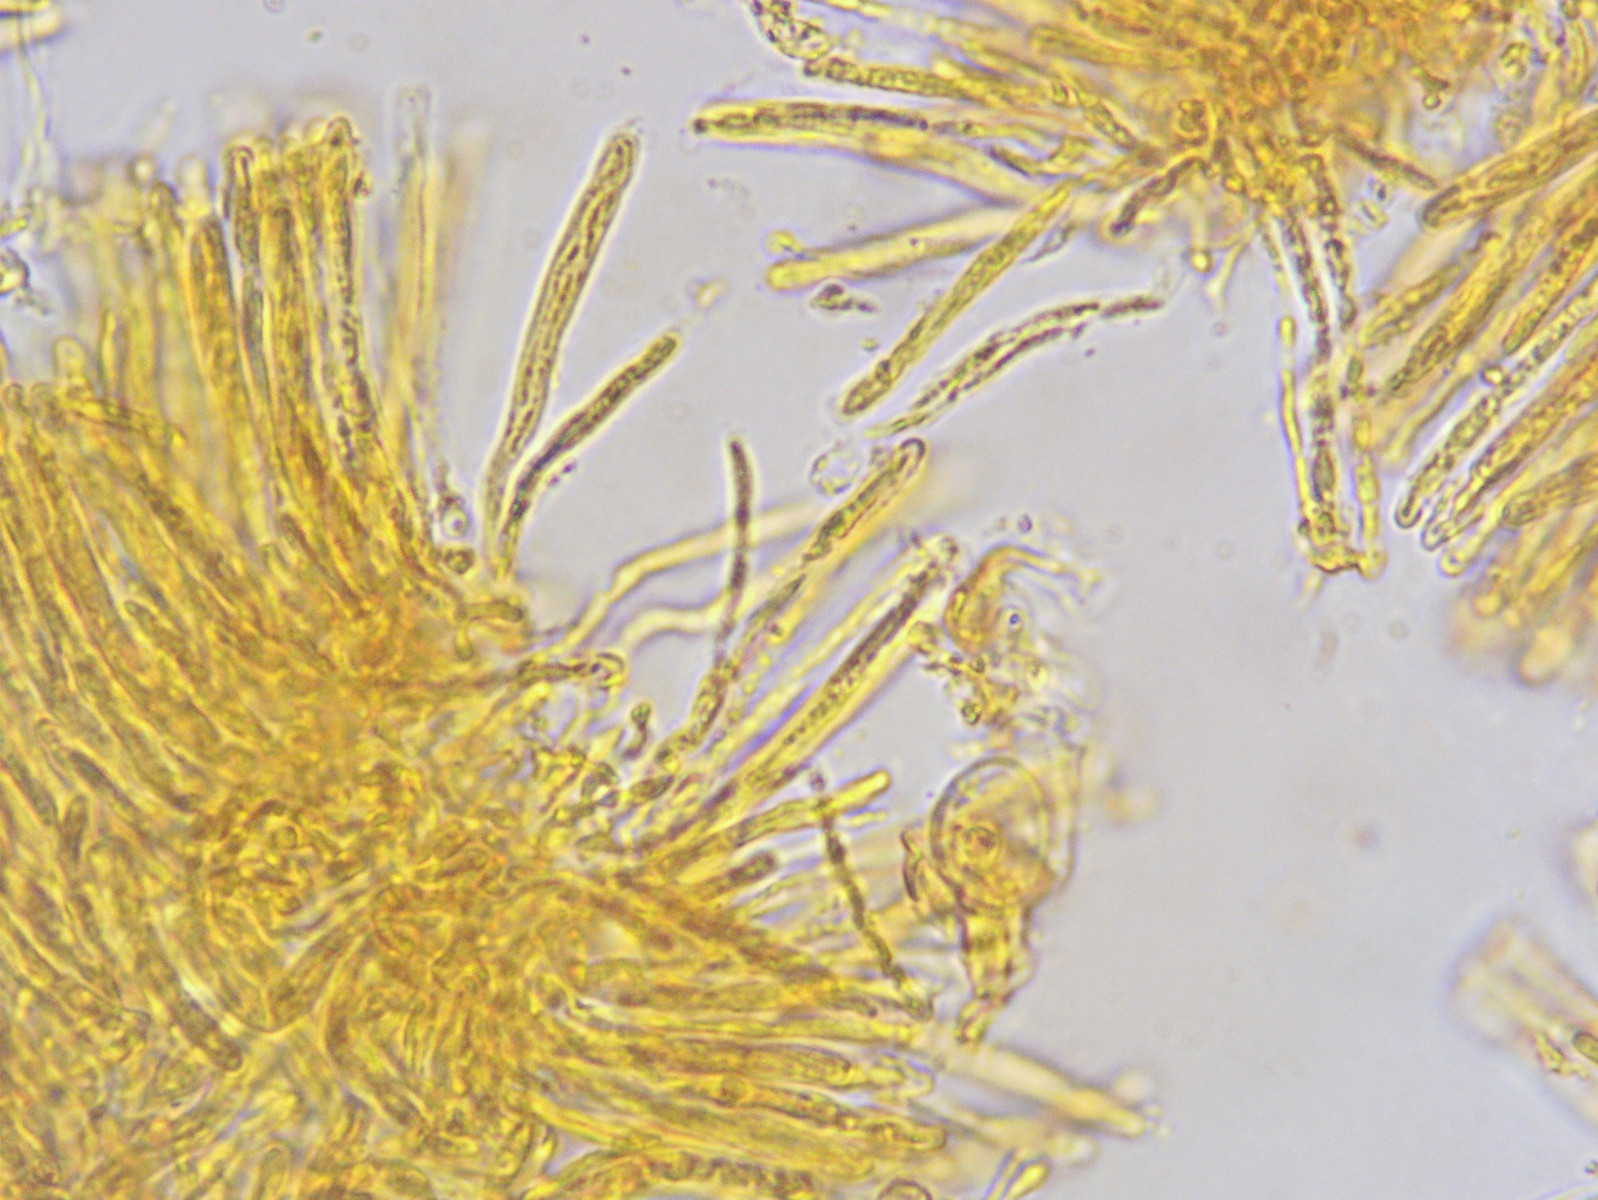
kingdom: Fungi
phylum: Ascomycota
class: Orbiliomycetes
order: Orbiliales
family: Orbiliaceae
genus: Orbilia
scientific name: Orbilia phragmotricha
